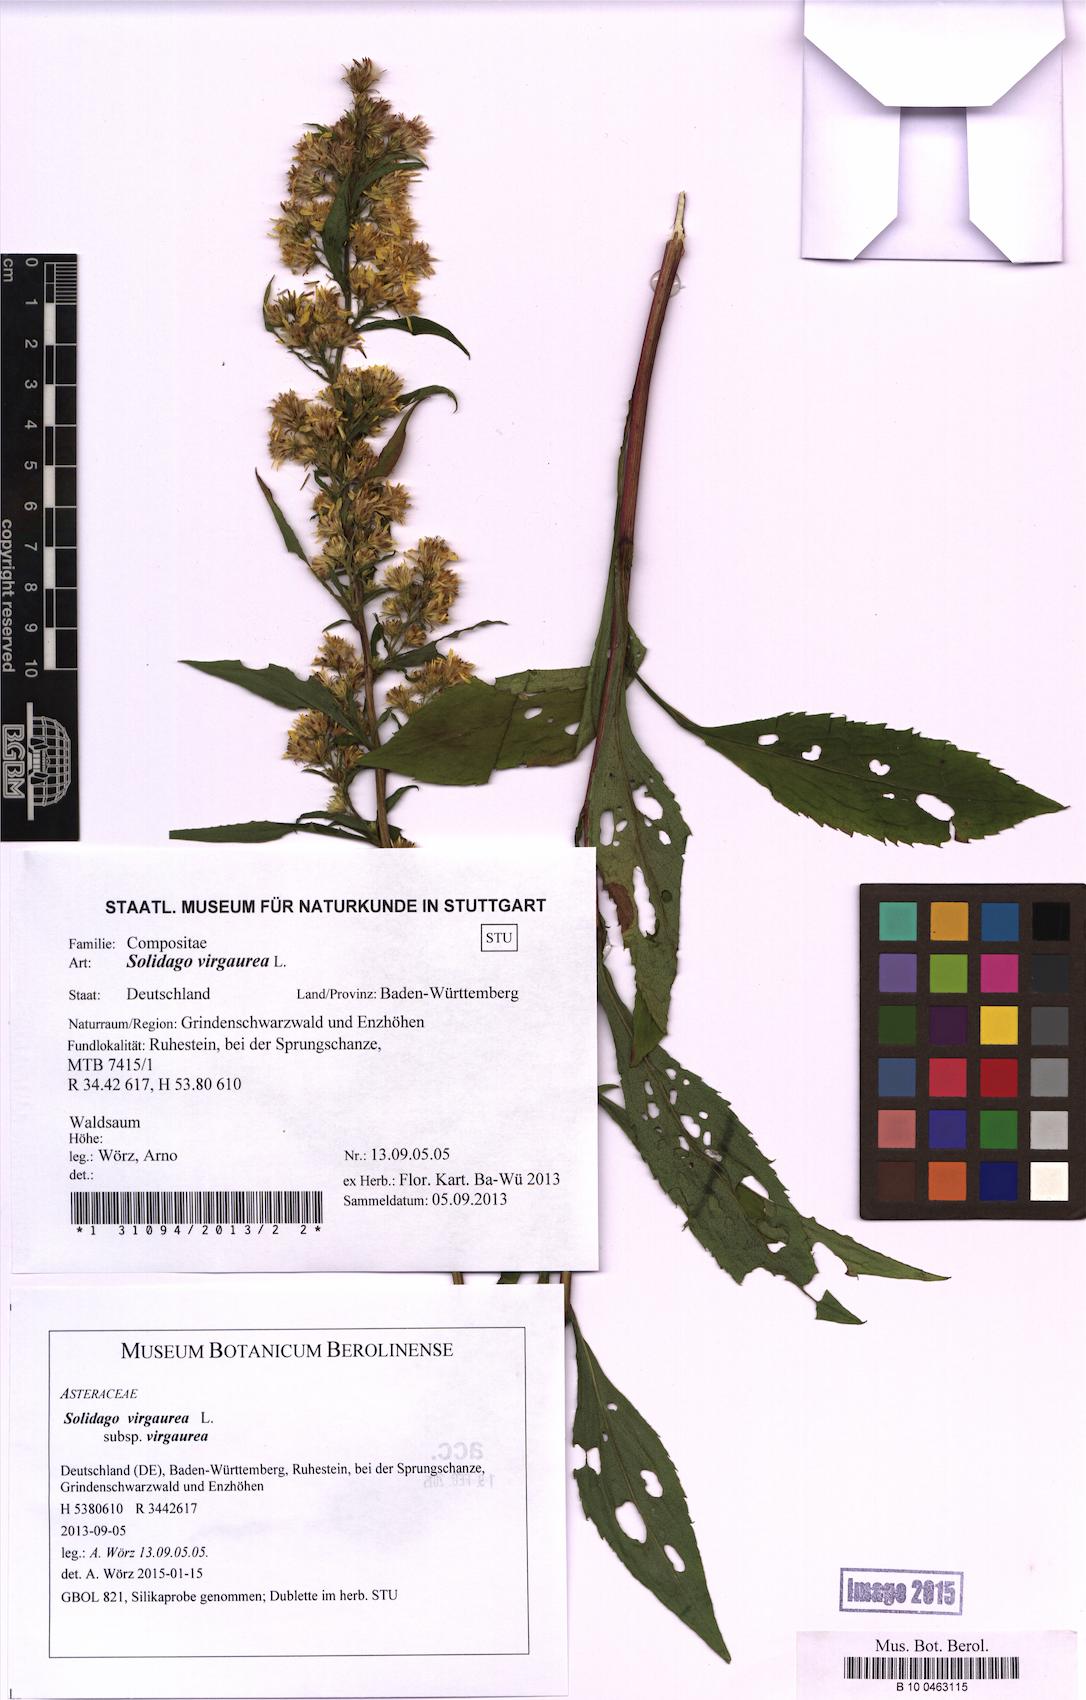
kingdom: Plantae
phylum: Tracheophyta
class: Magnoliopsida
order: Asterales
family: Asteraceae
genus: Solidago
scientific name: Solidago virgaurea
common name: Goldenrod
